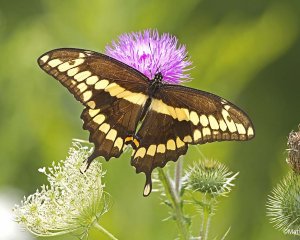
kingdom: Animalia
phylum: Arthropoda
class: Insecta
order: Lepidoptera
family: Papilionidae
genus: Papilio
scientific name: Papilio cresphontes
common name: Eastern Giant Swallowtail
